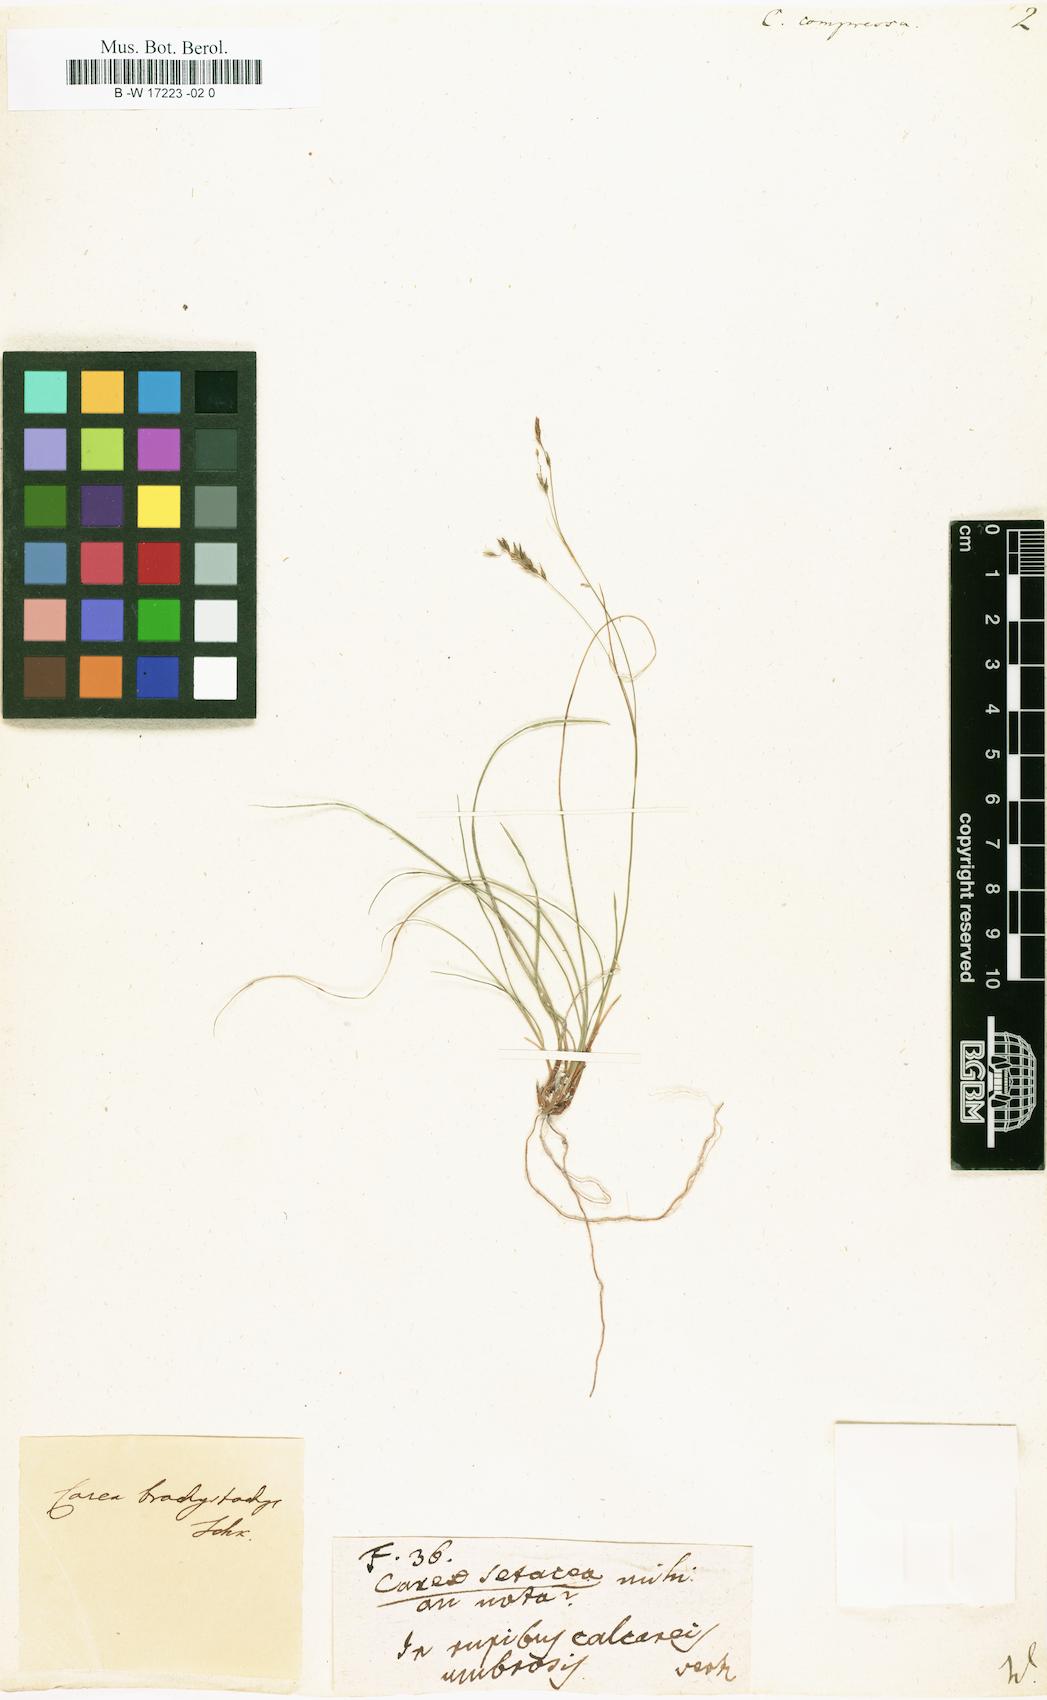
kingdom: Plantae
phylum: Tracheophyta
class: Liliopsida
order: Poales
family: Cyperaceae
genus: Carex
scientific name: Carex brachystachys
